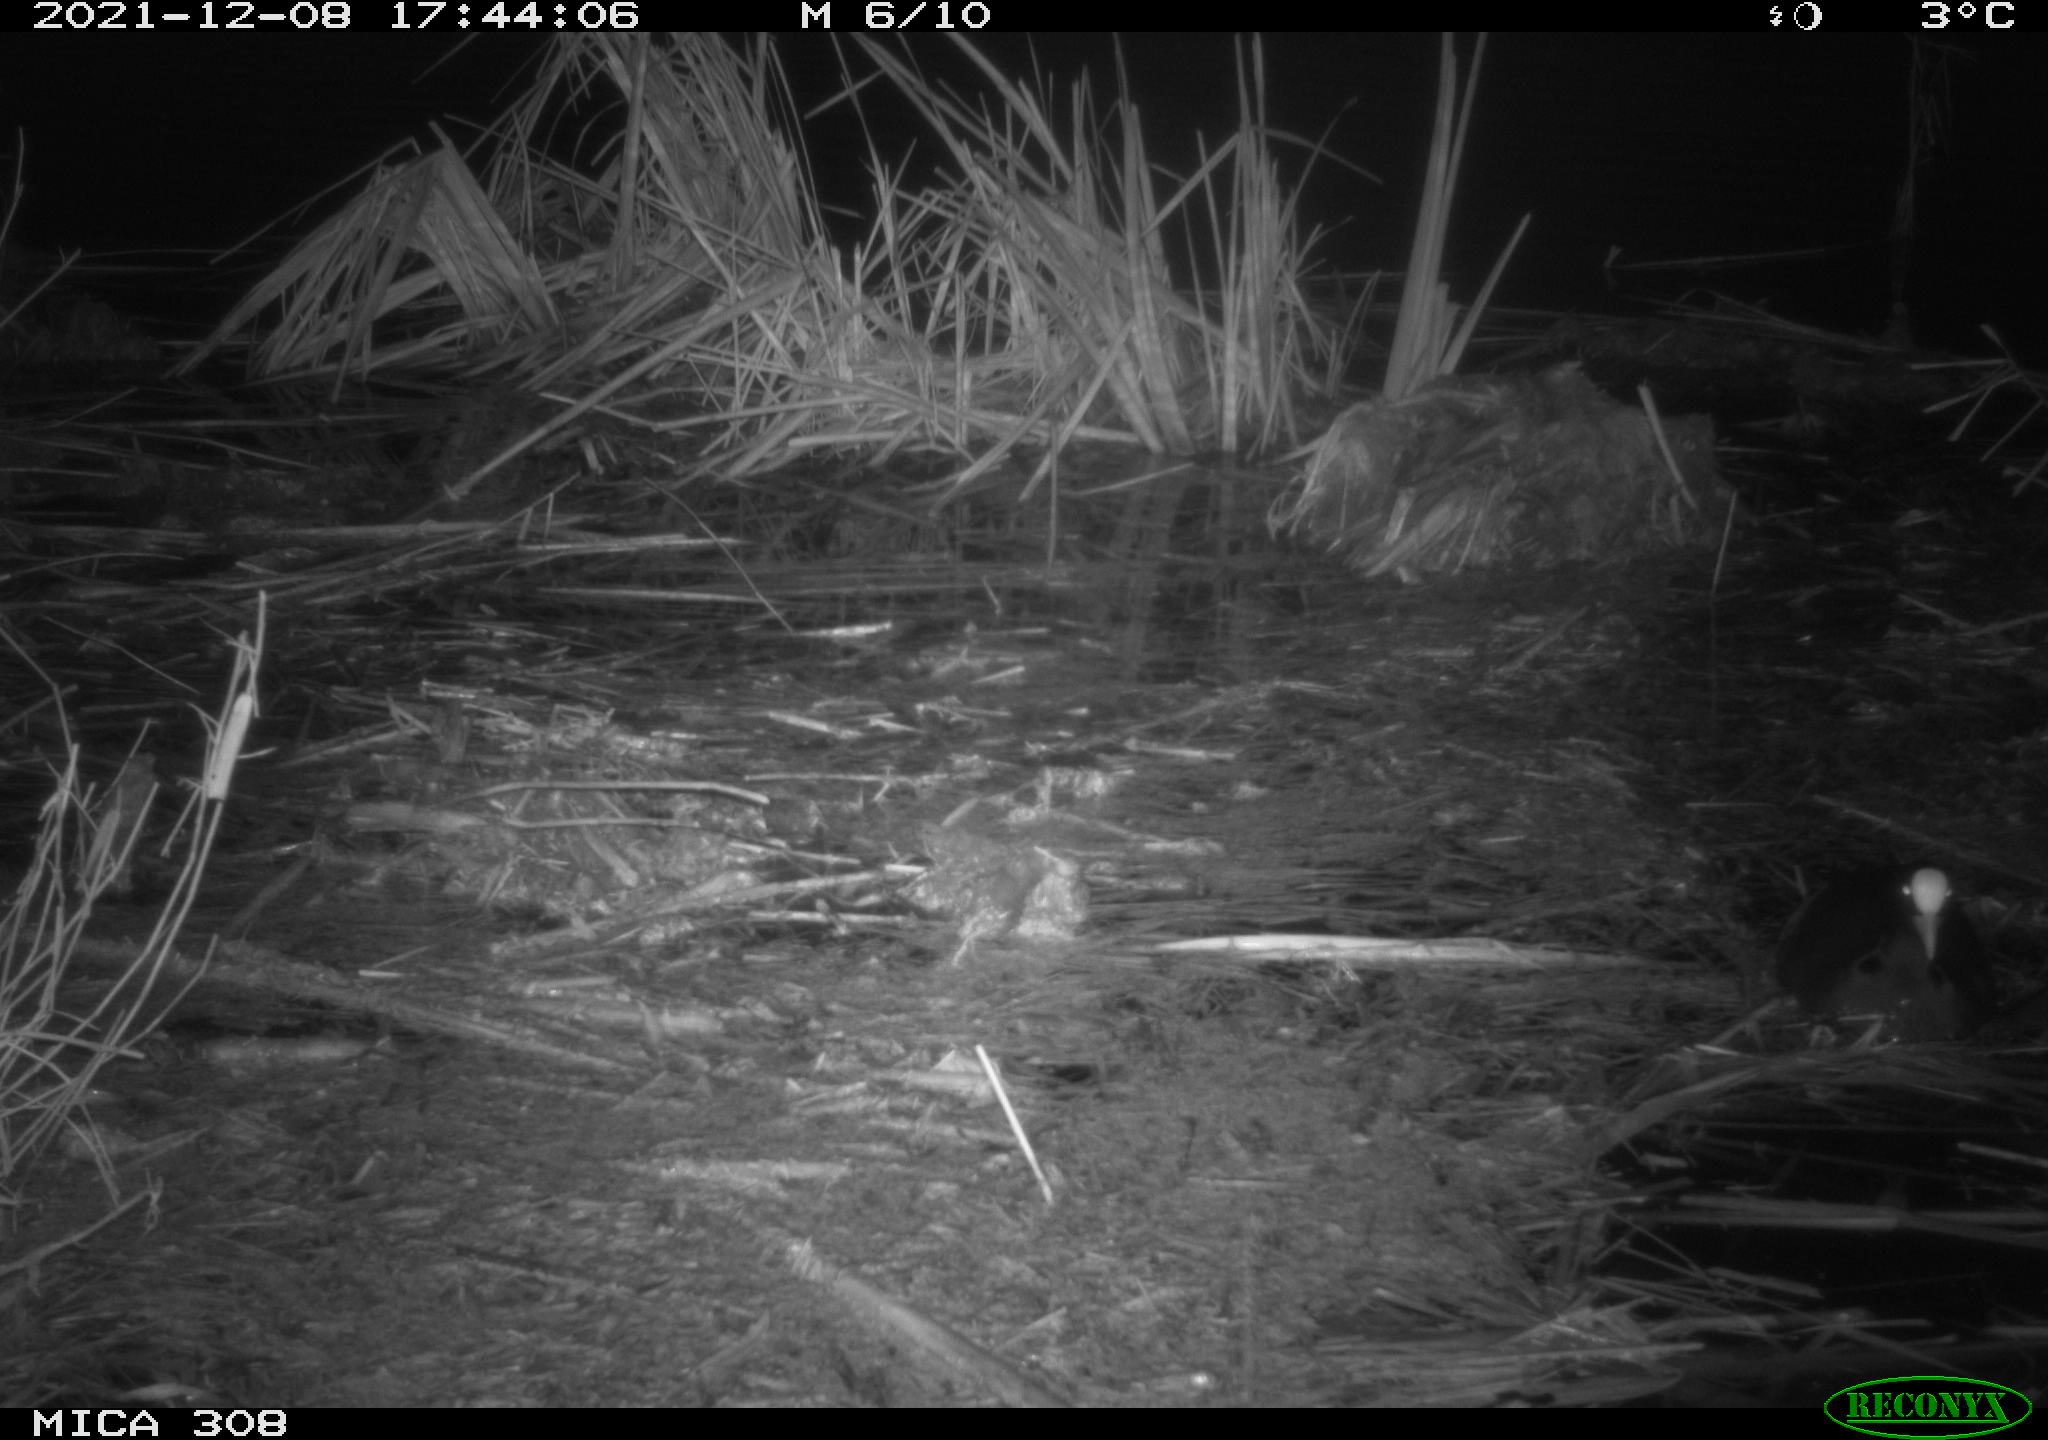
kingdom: Animalia
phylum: Chordata
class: Aves
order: Gruiformes
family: Rallidae
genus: Fulica
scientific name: Fulica atra
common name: Eurasian coot
